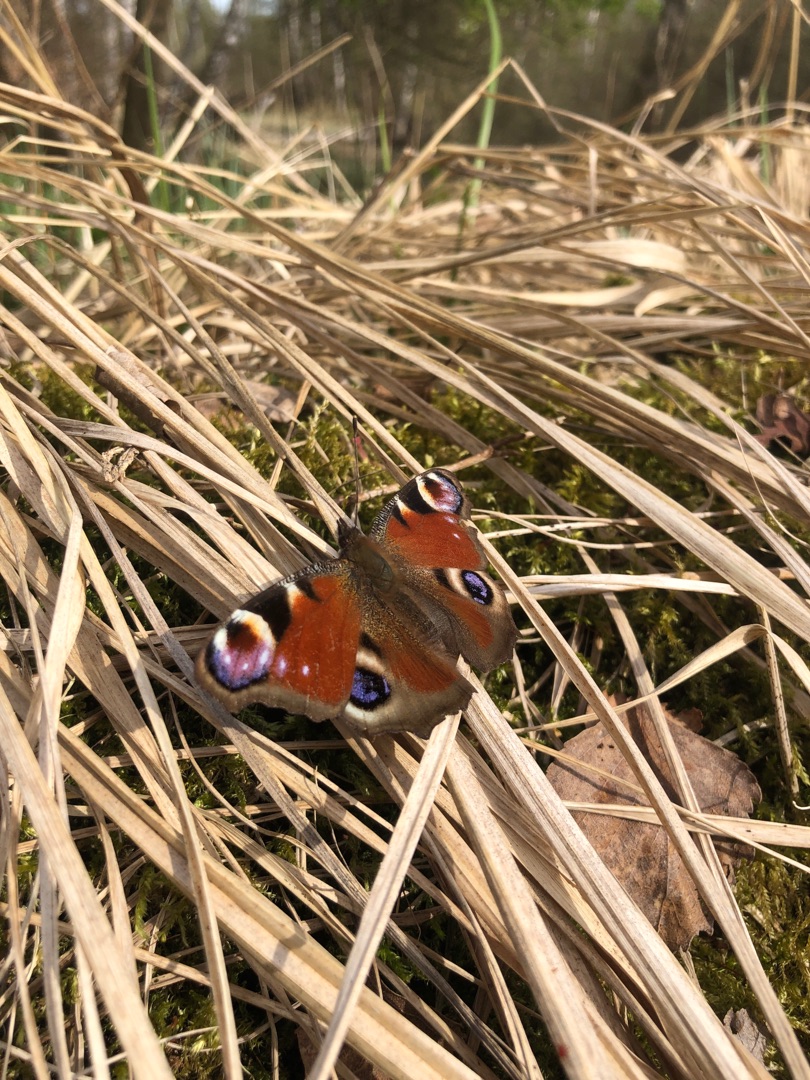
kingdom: Animalia
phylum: Arthropoda
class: Insecta
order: Lepidoptera
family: Nymphalidae
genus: Aglais
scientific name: Aglais io
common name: Dagpåfugleøje
